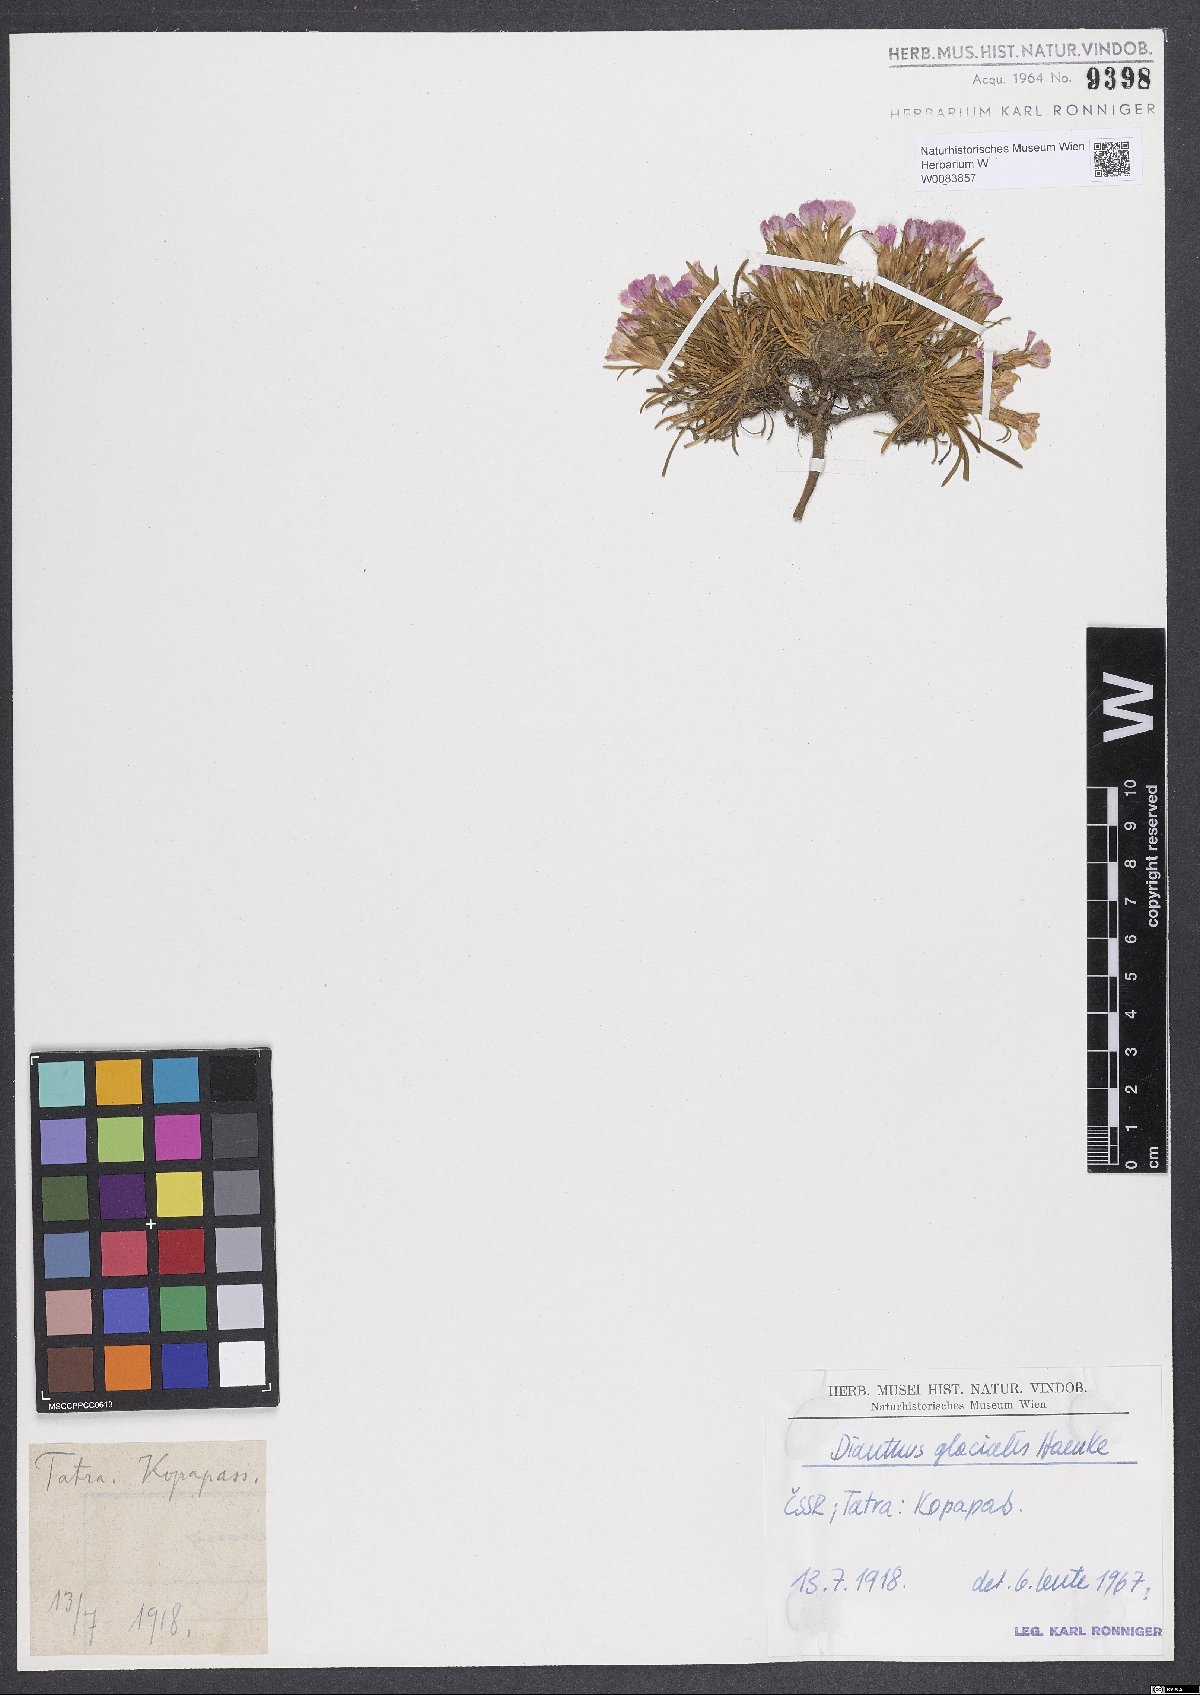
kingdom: Plantae
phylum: Tracheophyta
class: Magnoliopsida
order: Caryophyllales
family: Caryophyllaceae
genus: Dianthus
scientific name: Dianthus glacialis
